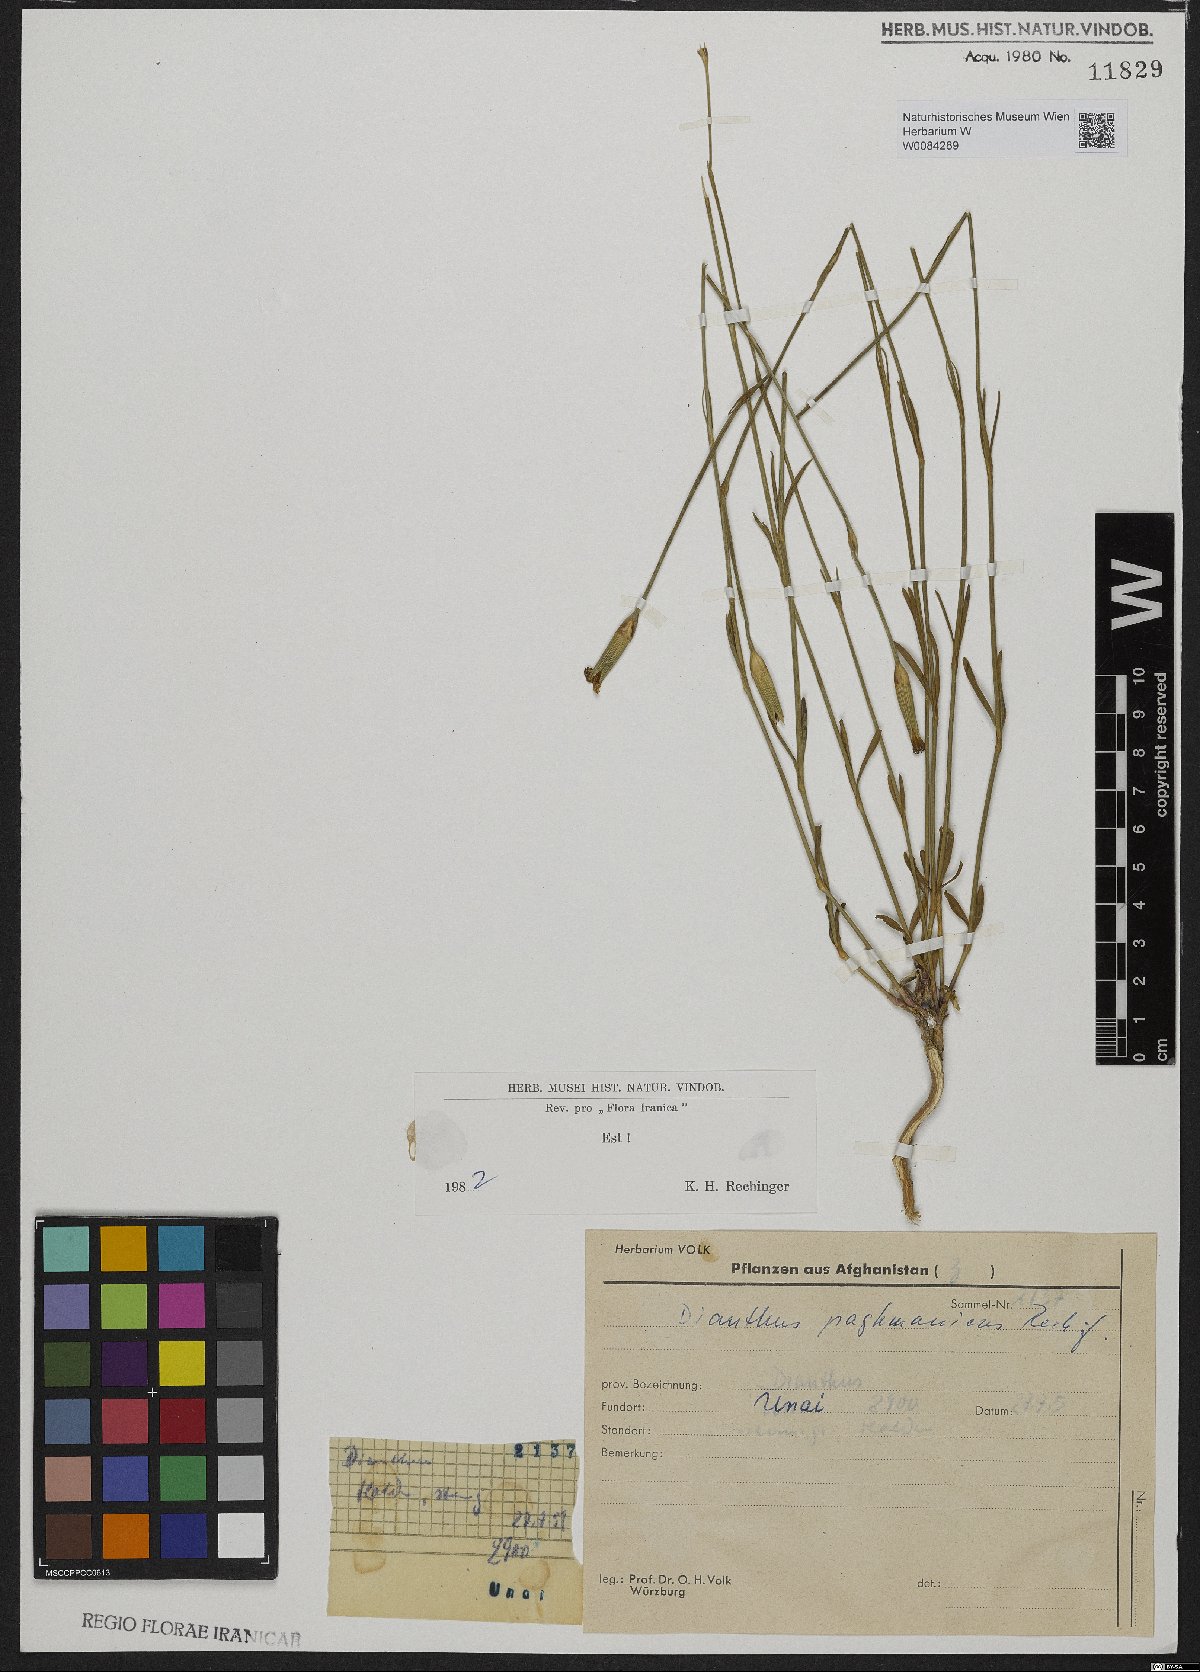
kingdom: Plantae
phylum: Tracheophyta
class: Magnoliopsida
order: Caryophyllales
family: Caryophyllaceae
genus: Dianthus
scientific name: Dianthus paghmanicus
